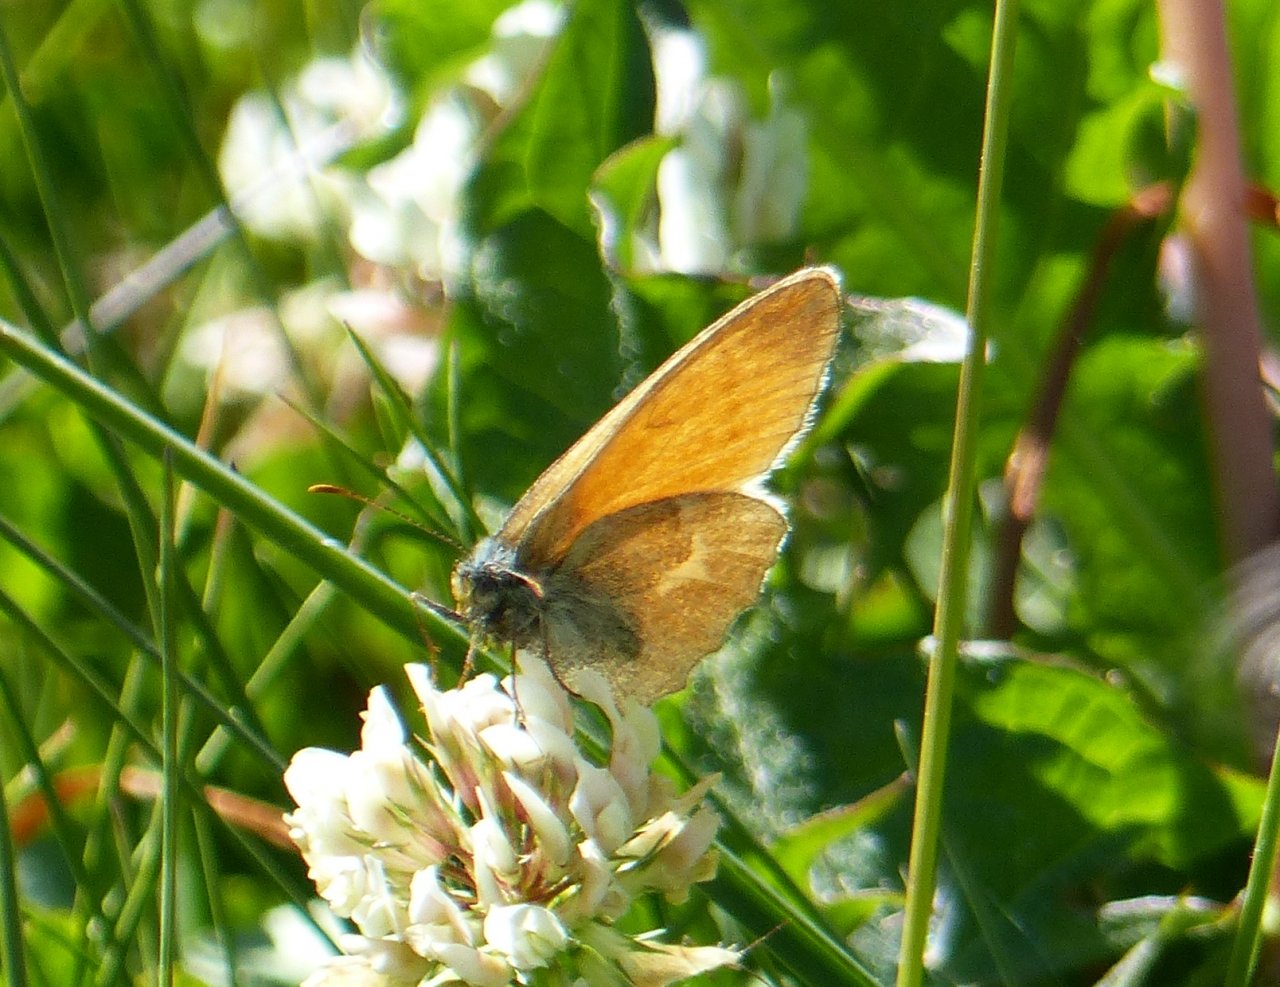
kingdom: Animalia
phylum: Arthropoda
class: Insecta
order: Lepidoptera
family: Nymphalidae
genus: Coenonympha
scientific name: Coenonympha tullia
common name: Large Heath
